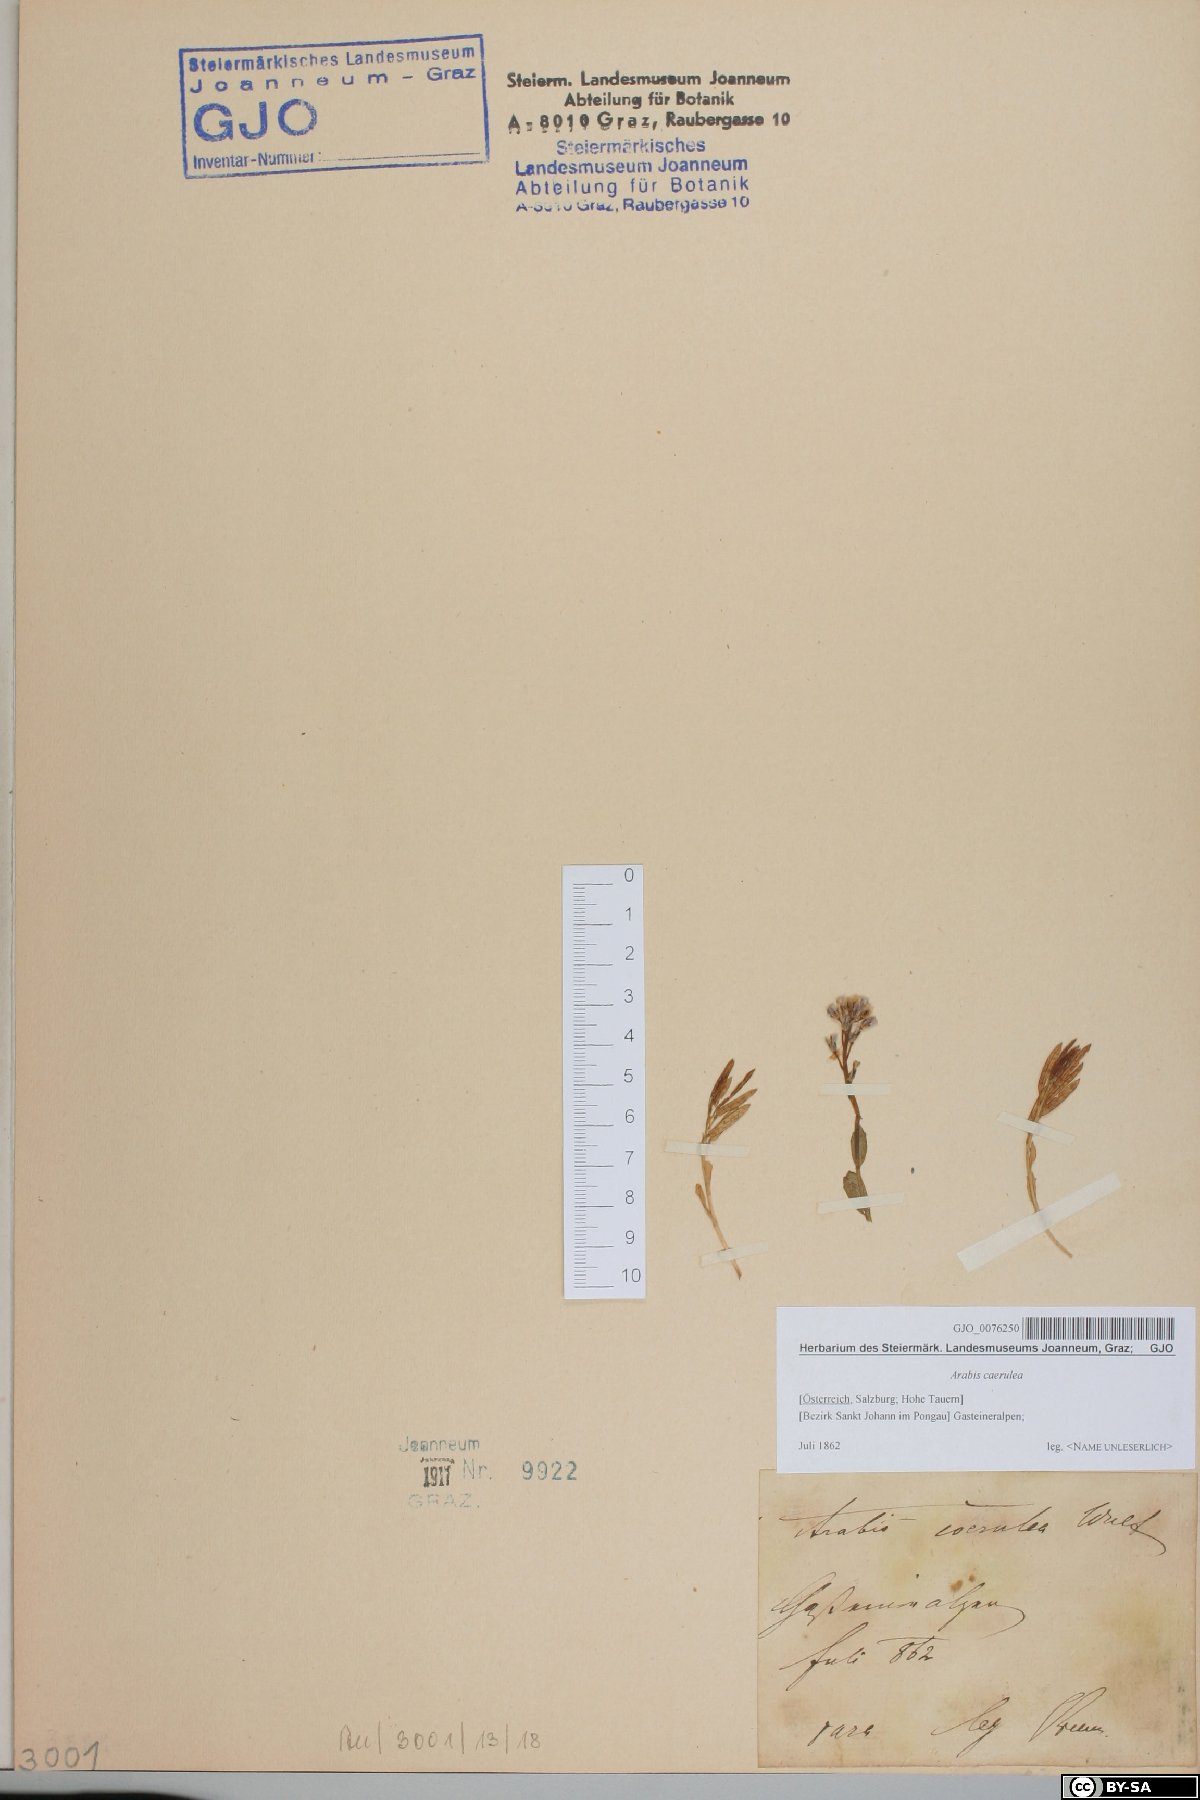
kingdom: Plantae
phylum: Tracheophyta
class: Magnoliopsida
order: Brassicales
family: Brassicaceae
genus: Arabis
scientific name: Arabis caerulea
